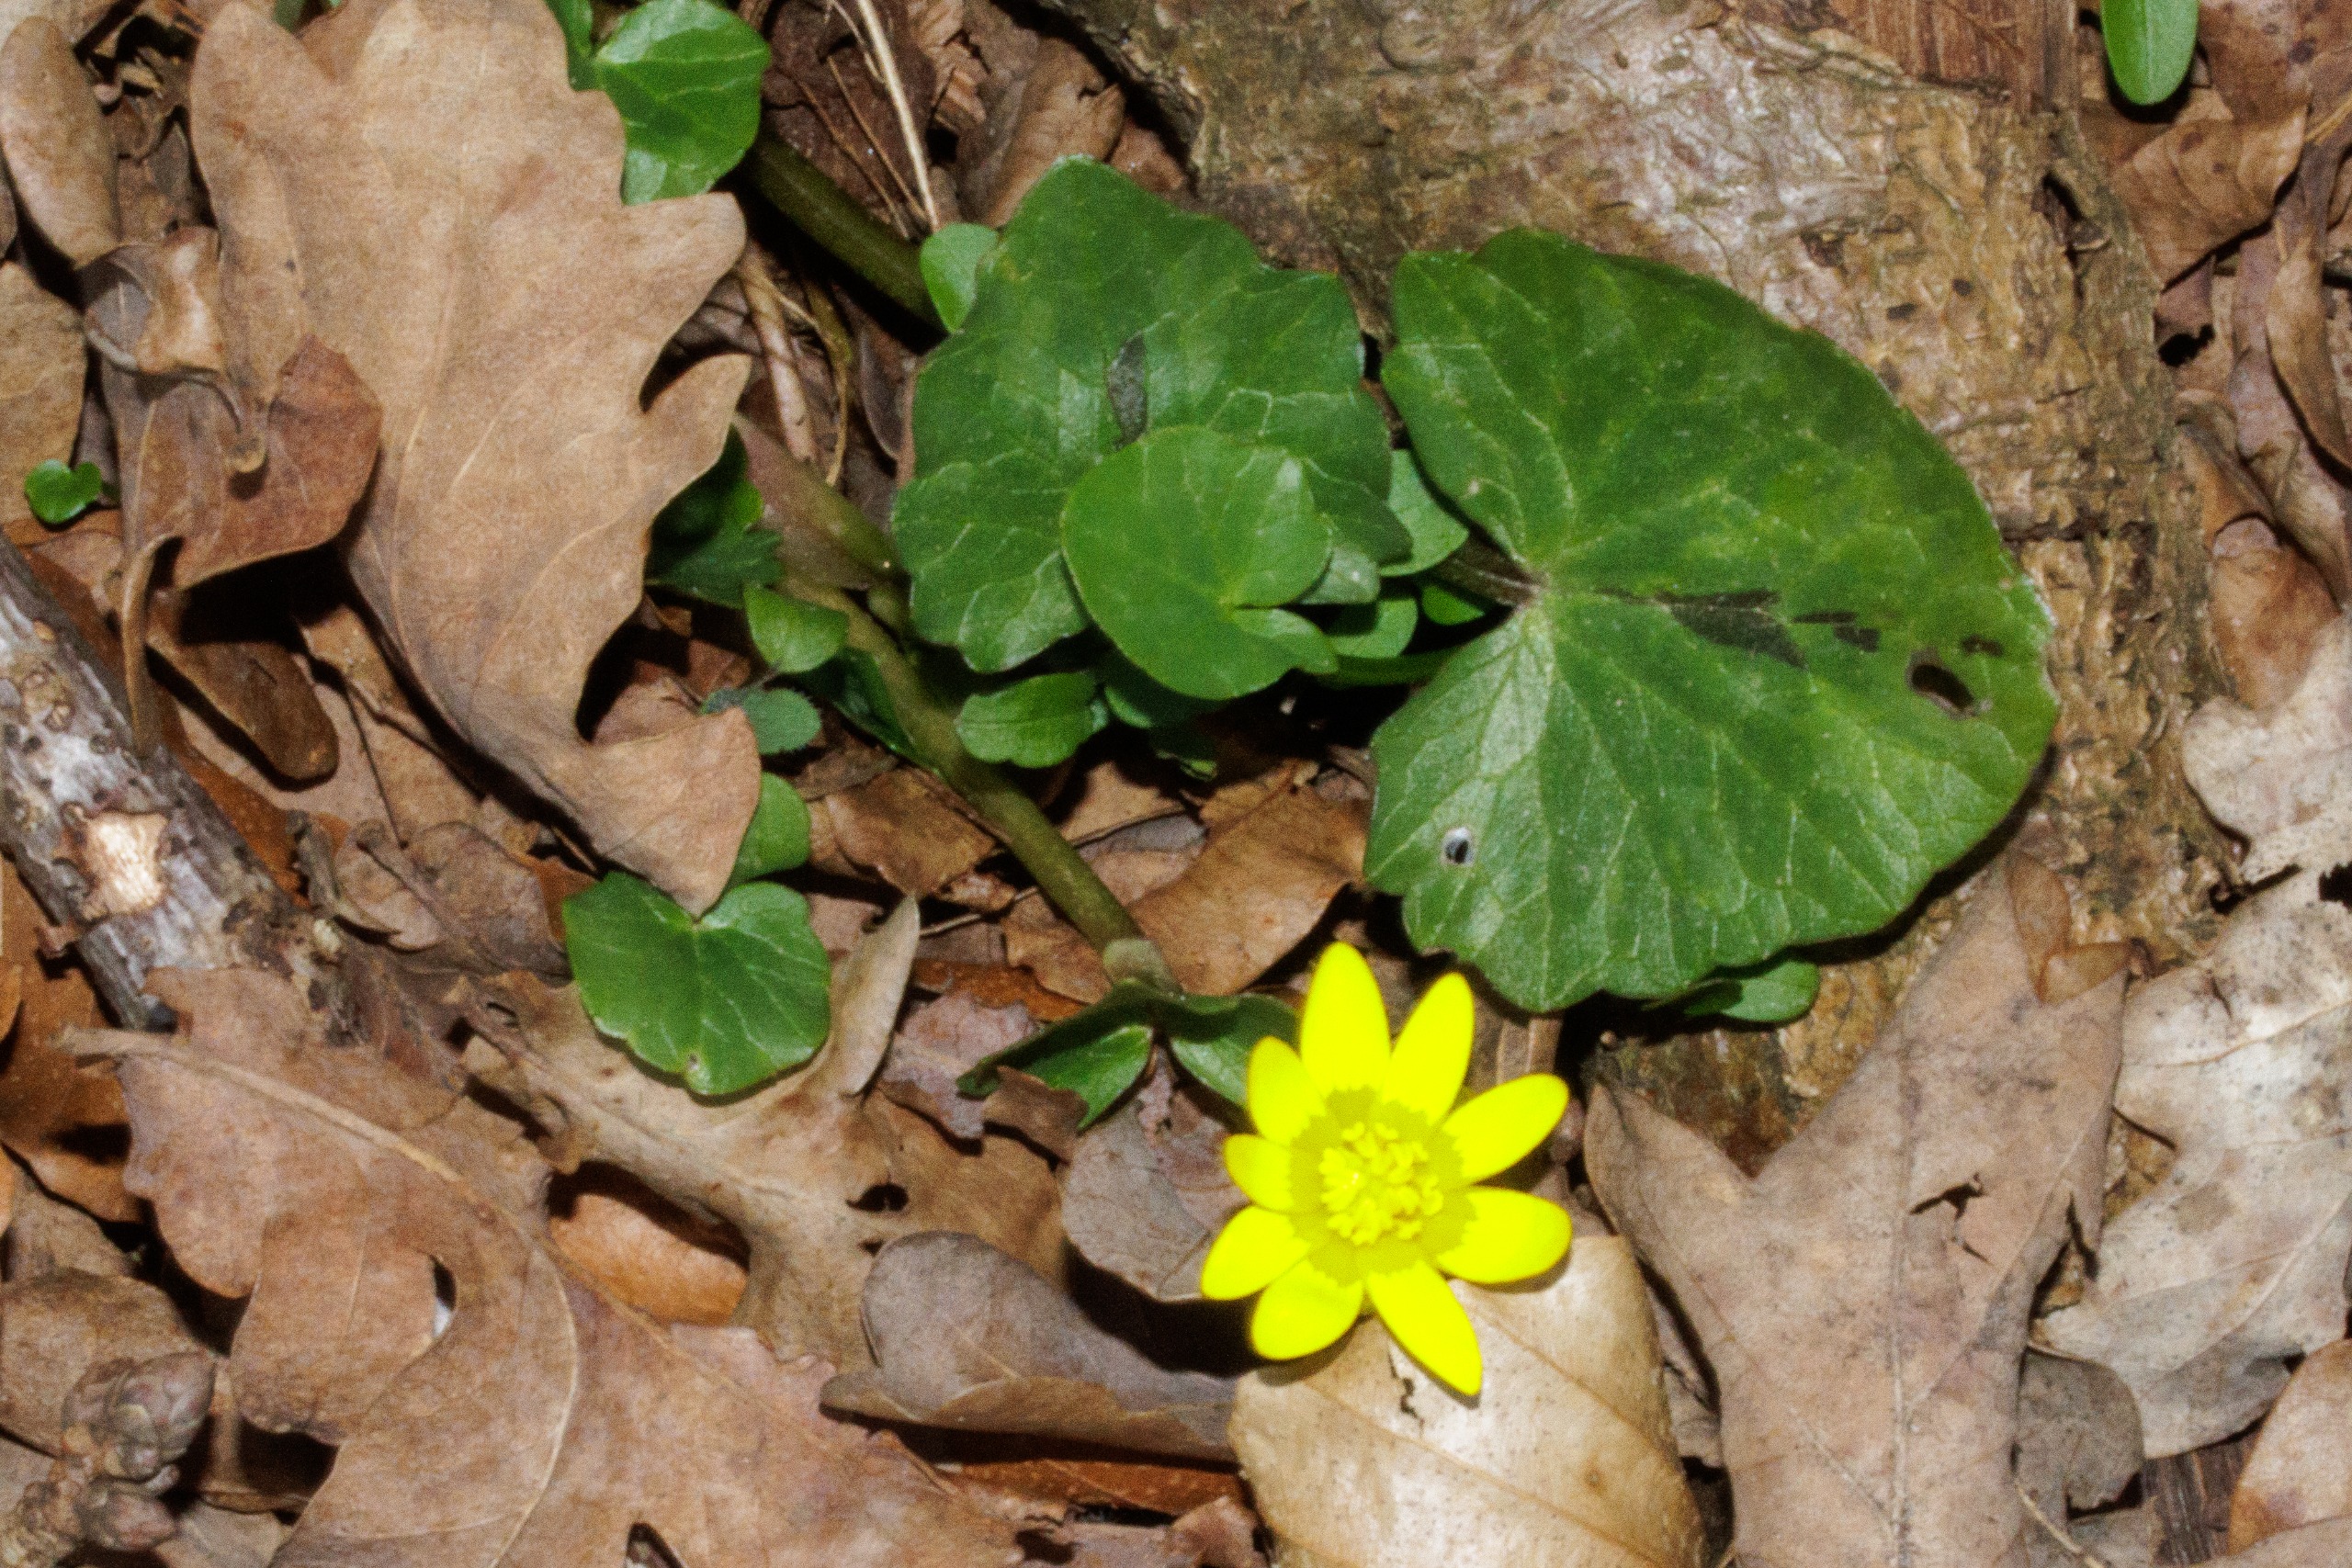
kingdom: Plantae
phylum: Tracheophyta
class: Magnoliopsida
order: Ranunculales
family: Ranunculaceae
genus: Ficaria
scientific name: Ficaria verna
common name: Vorterod
